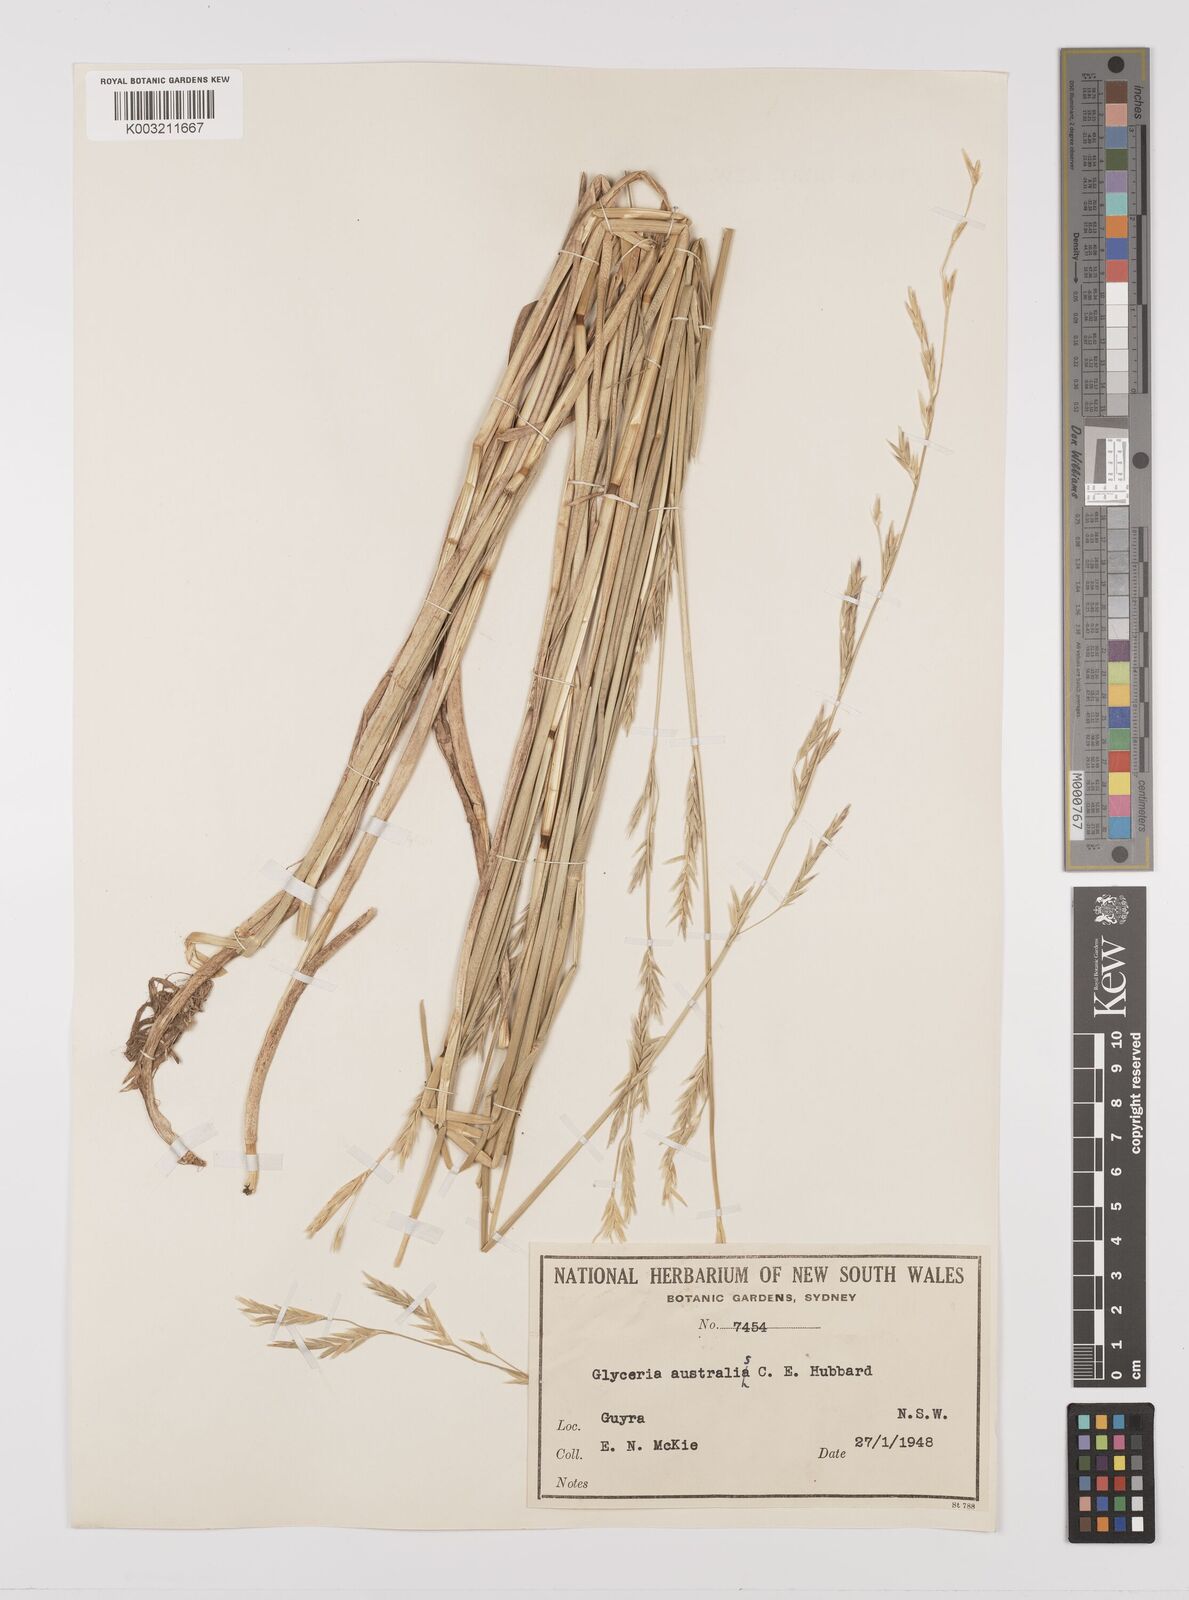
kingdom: Plantae
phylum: Tracheophyta
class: Liliopsida
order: Poales
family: Poaceae
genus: Glyceria
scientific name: Glyceria australis
